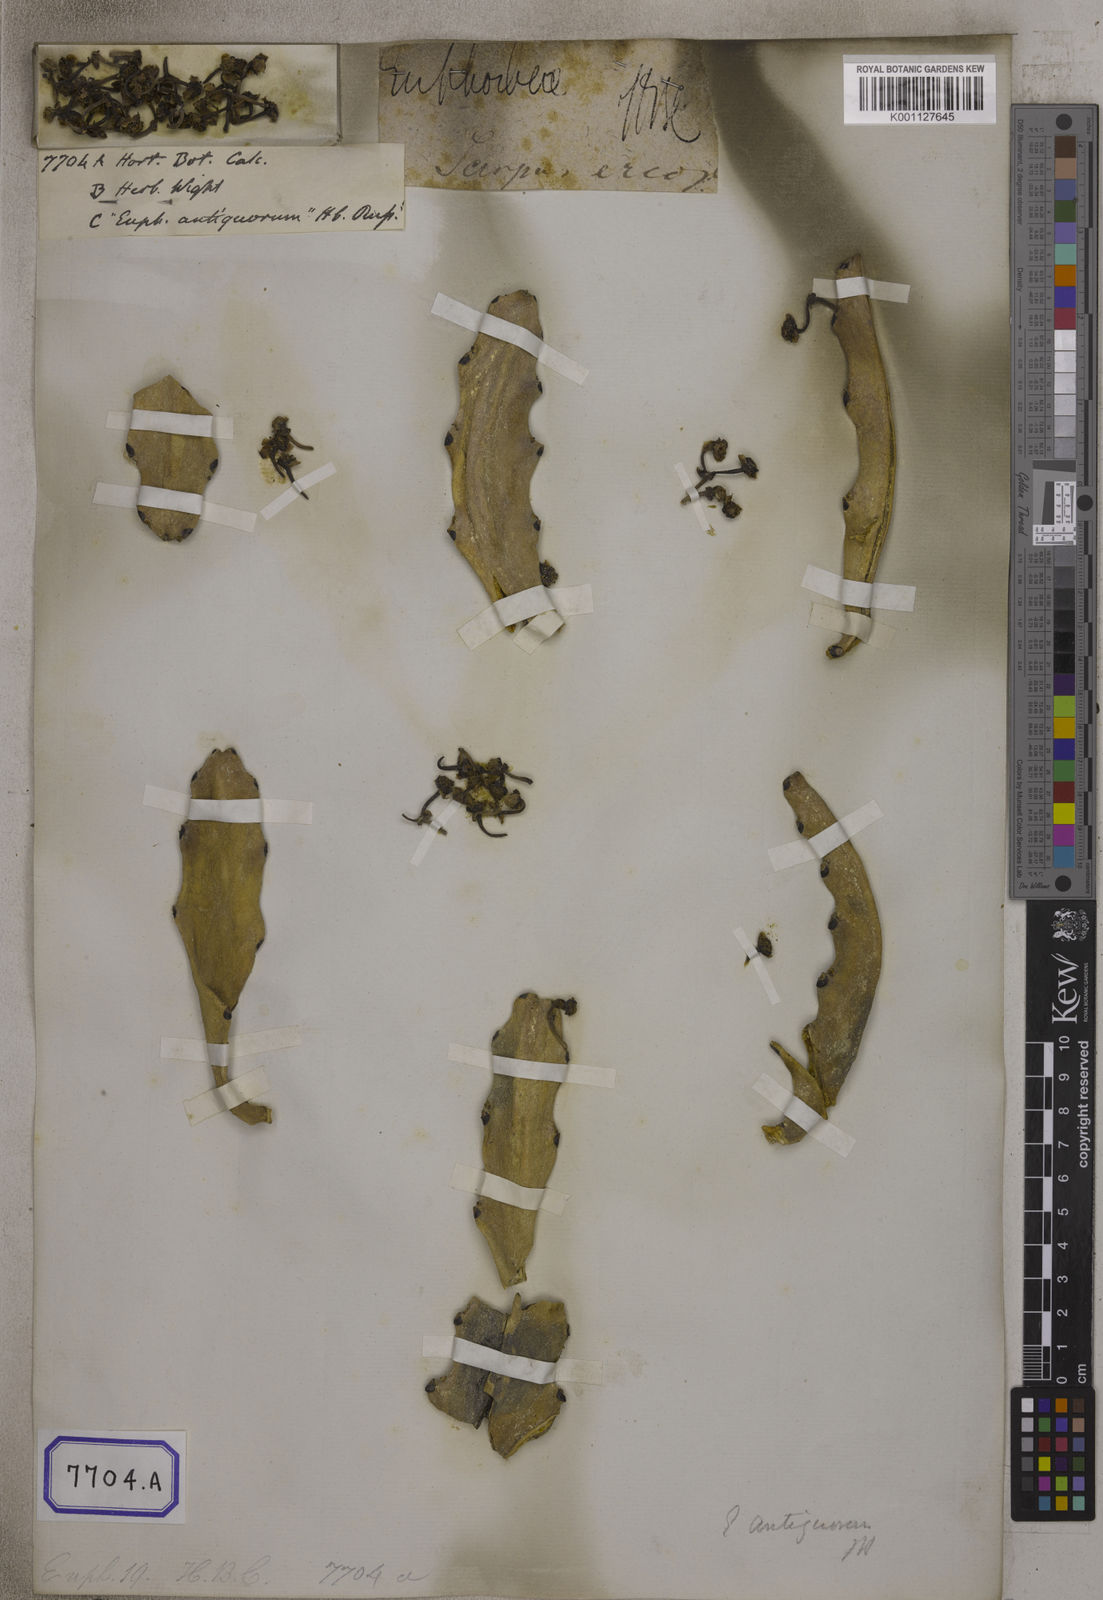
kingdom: Plantae
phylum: Tracheophyta
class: Magnoliopsida
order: Malpighiales
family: Euphorbiaceae
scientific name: Euphorbiaceae
